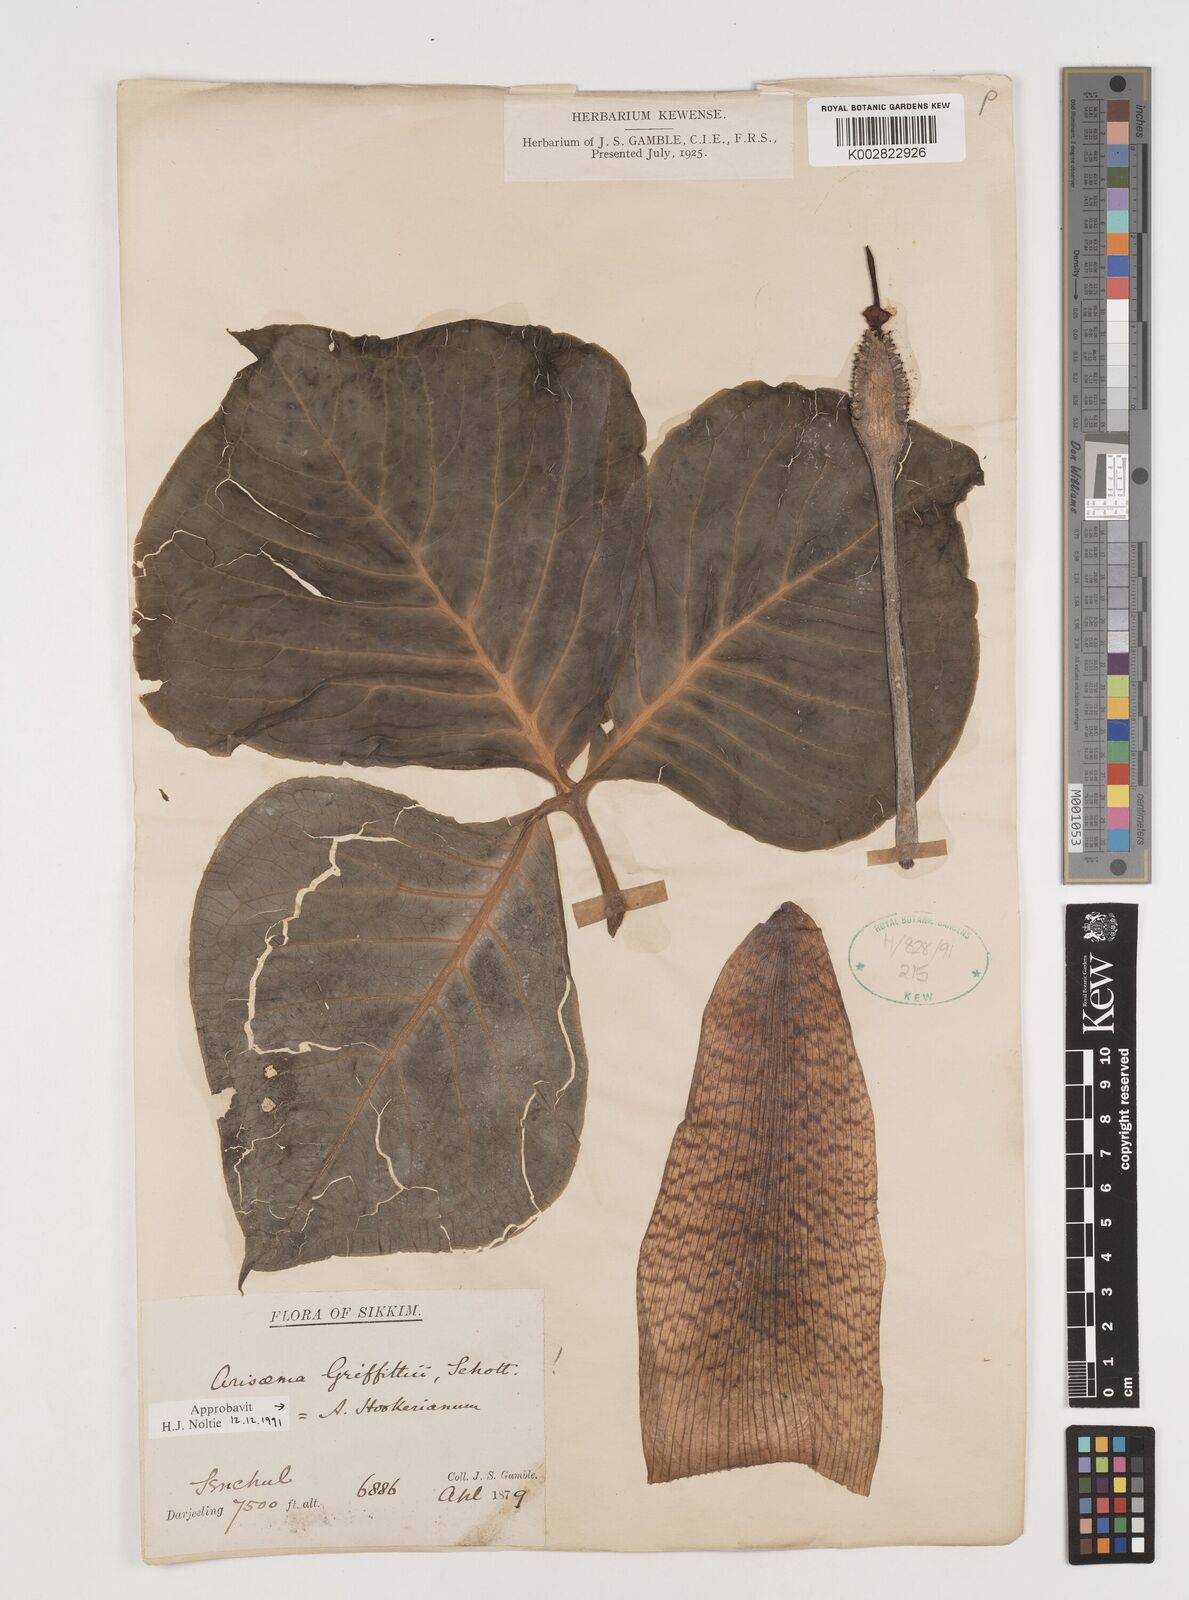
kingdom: Plantae
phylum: Tracheophyta
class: Liliopsida
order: Alismatales
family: Araceae
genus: Arisaema
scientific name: Arisaema griffithii
